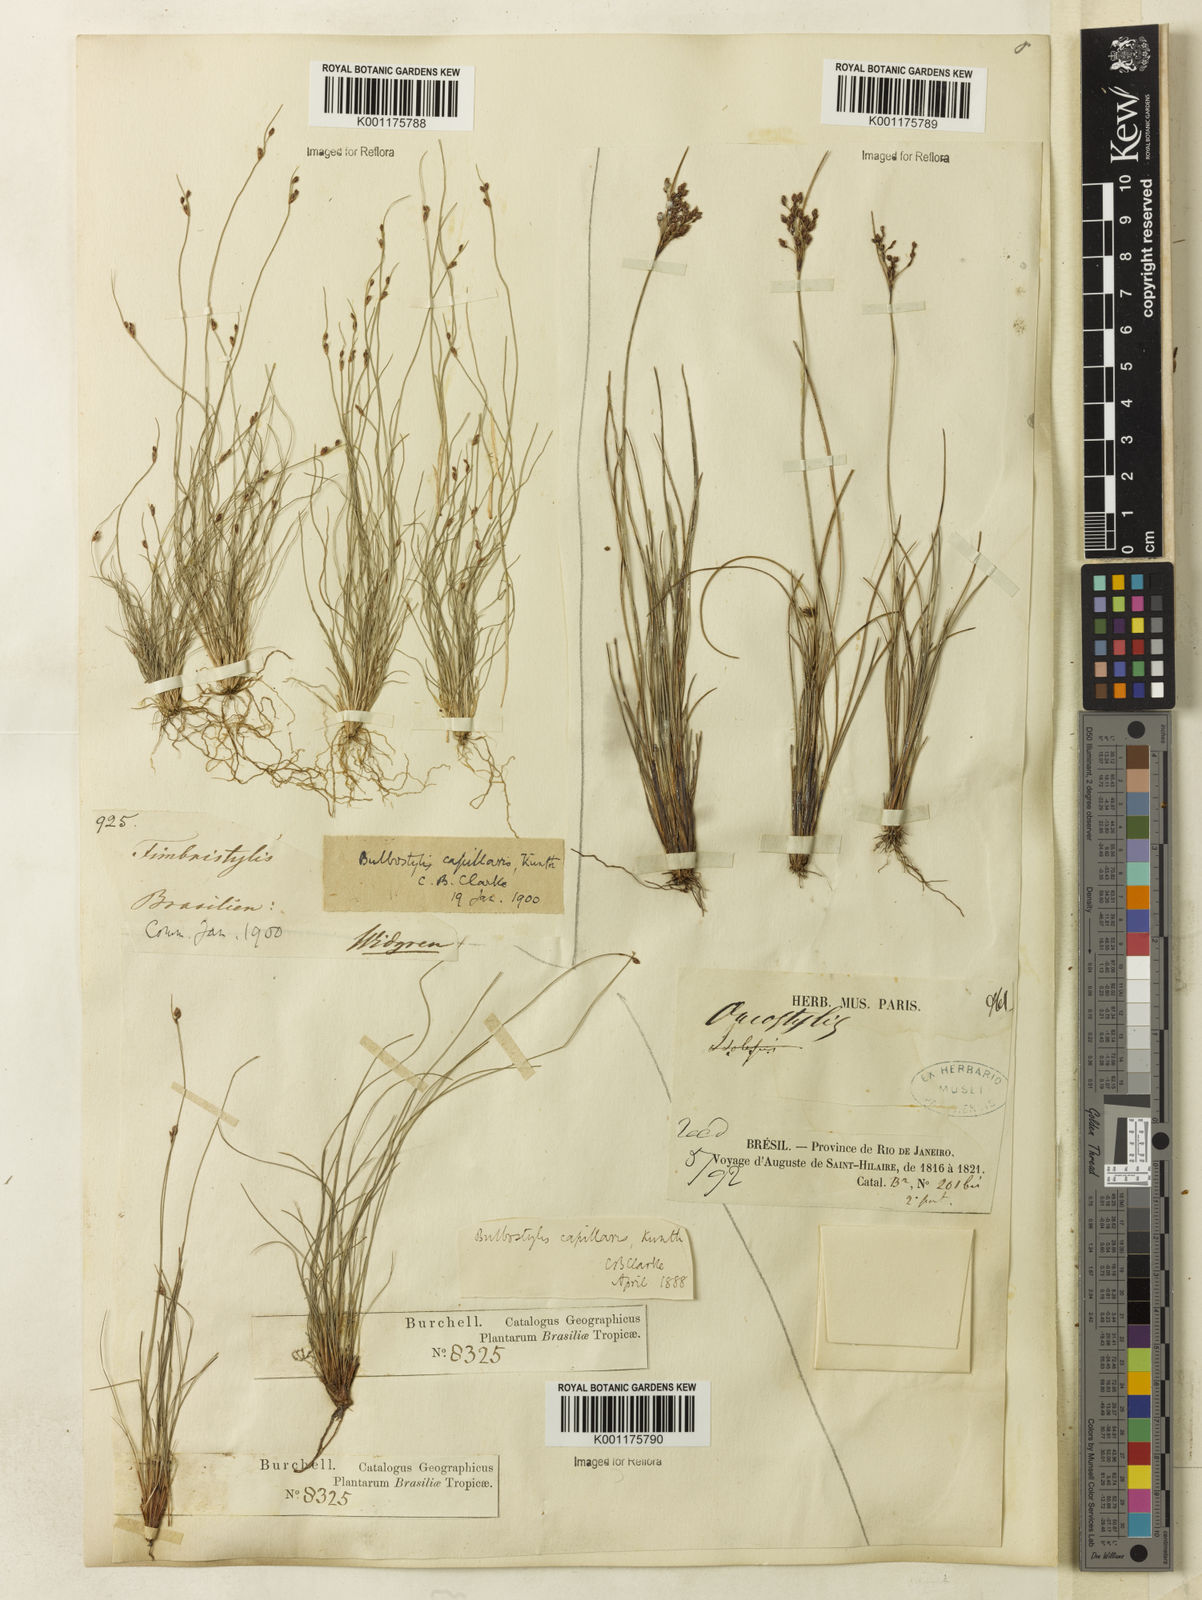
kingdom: Plantae
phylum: Tracheophyta
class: Liliopsida
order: Poales
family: Cyperaceae
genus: Bulbostylis
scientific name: Bulbostylis capillaris
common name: Densetuft hairsedge
